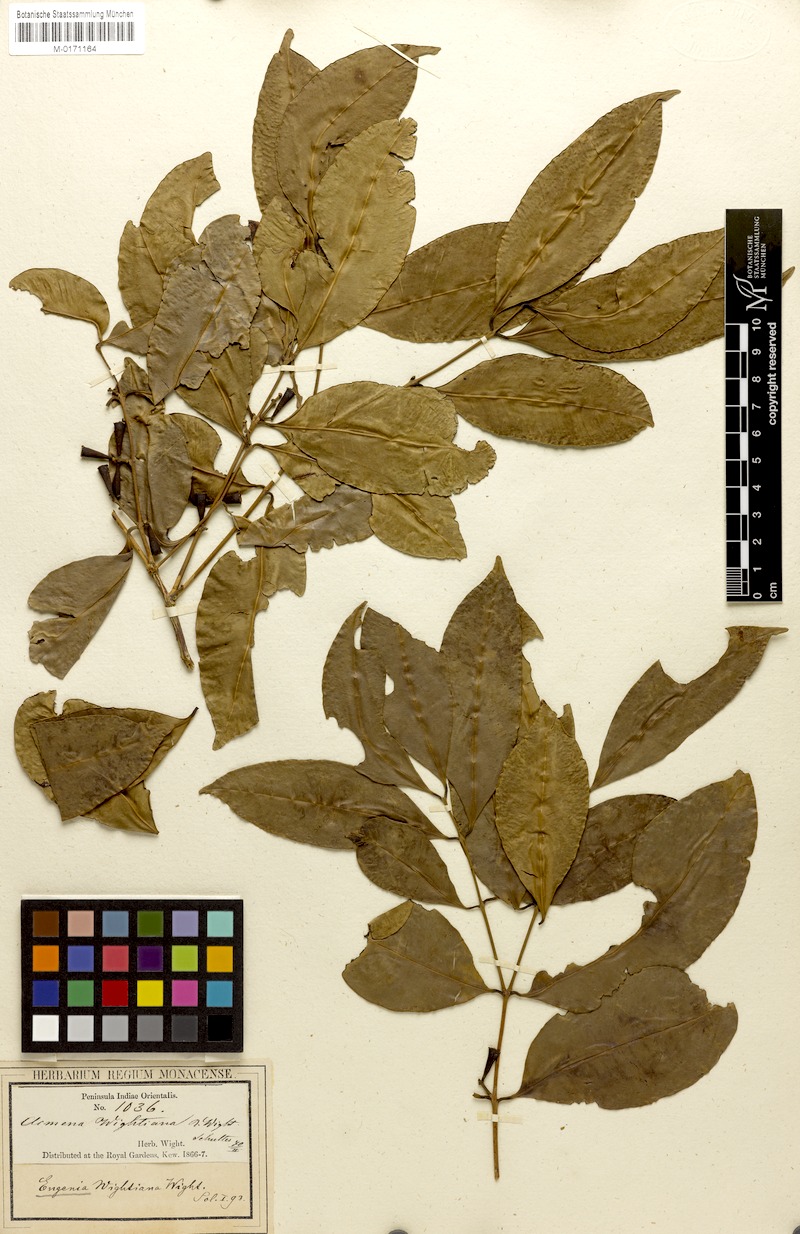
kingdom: Plantae
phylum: Tracheophyta
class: Magnoliopsida
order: Myrtales
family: Myrtaceae
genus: Syzygium
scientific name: Syzygium lanceolatum
